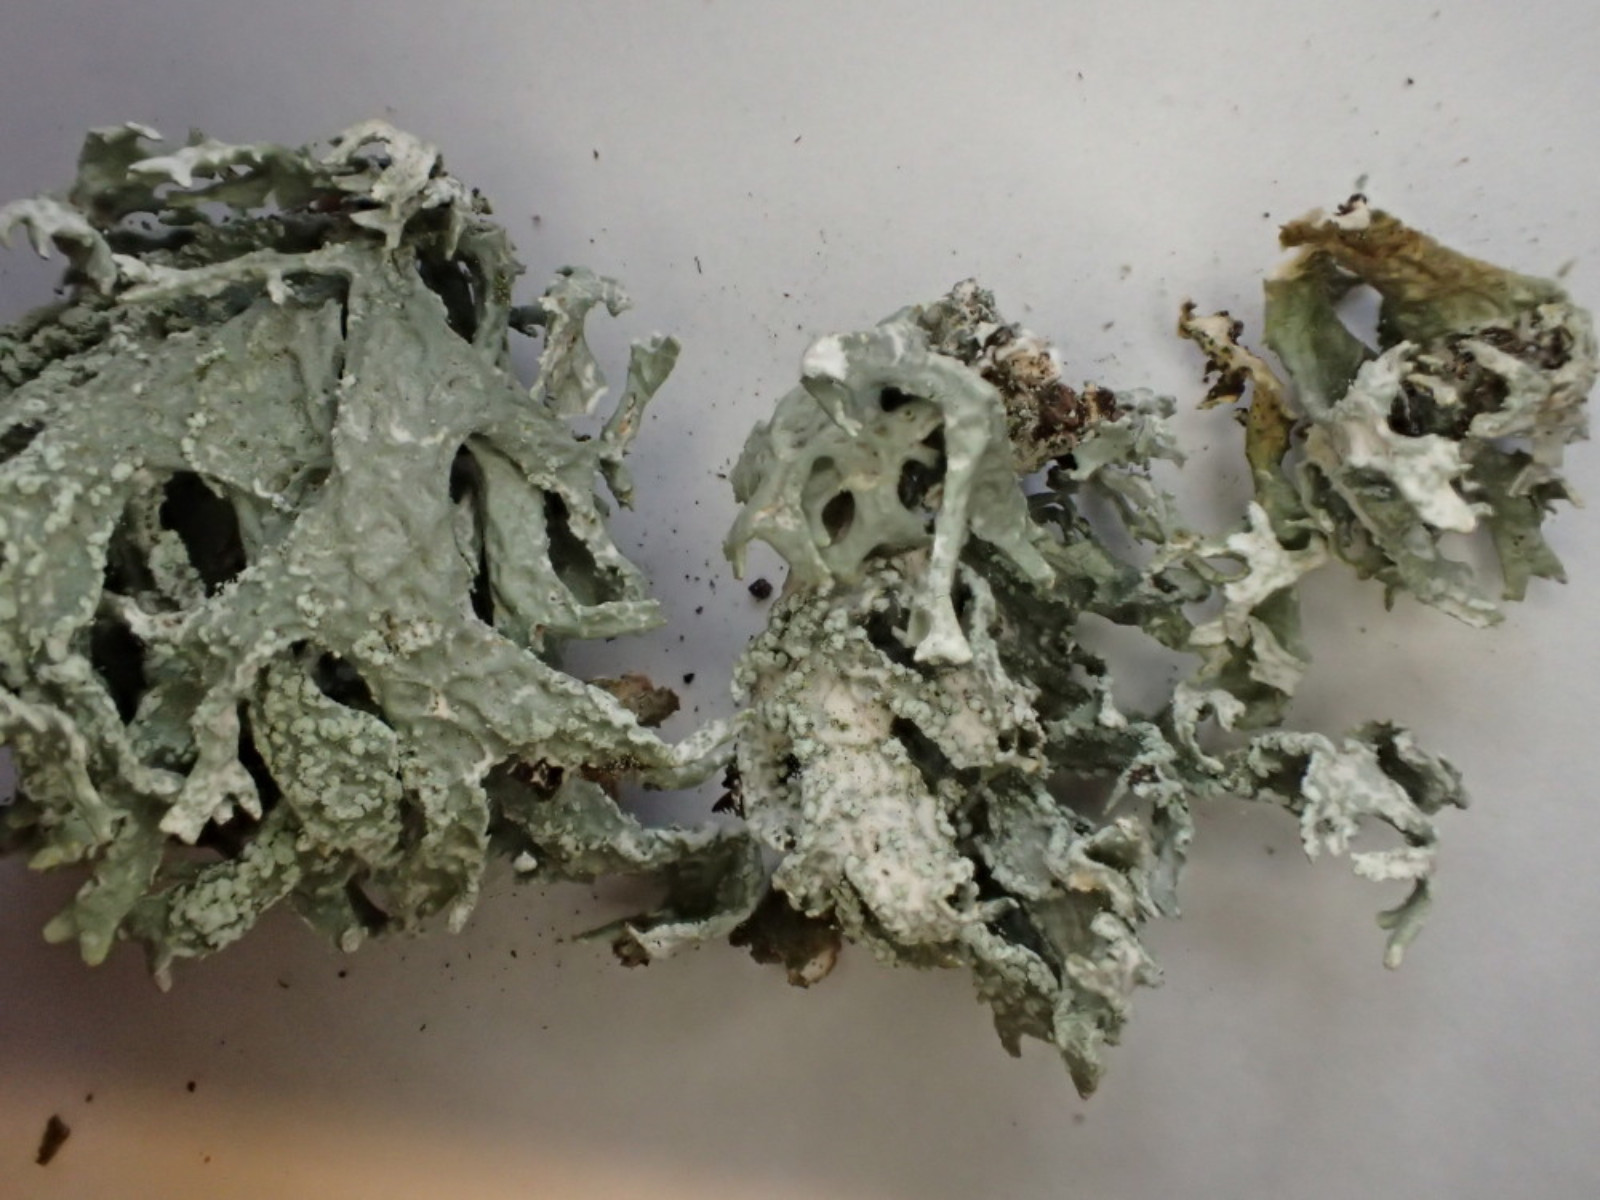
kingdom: Fungi
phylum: Ascomycota
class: Lecanoromycetes
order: Lecanorales
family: Parmeliaceae
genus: Evernia
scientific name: Evernia prunastri
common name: almindelig slåenlav
